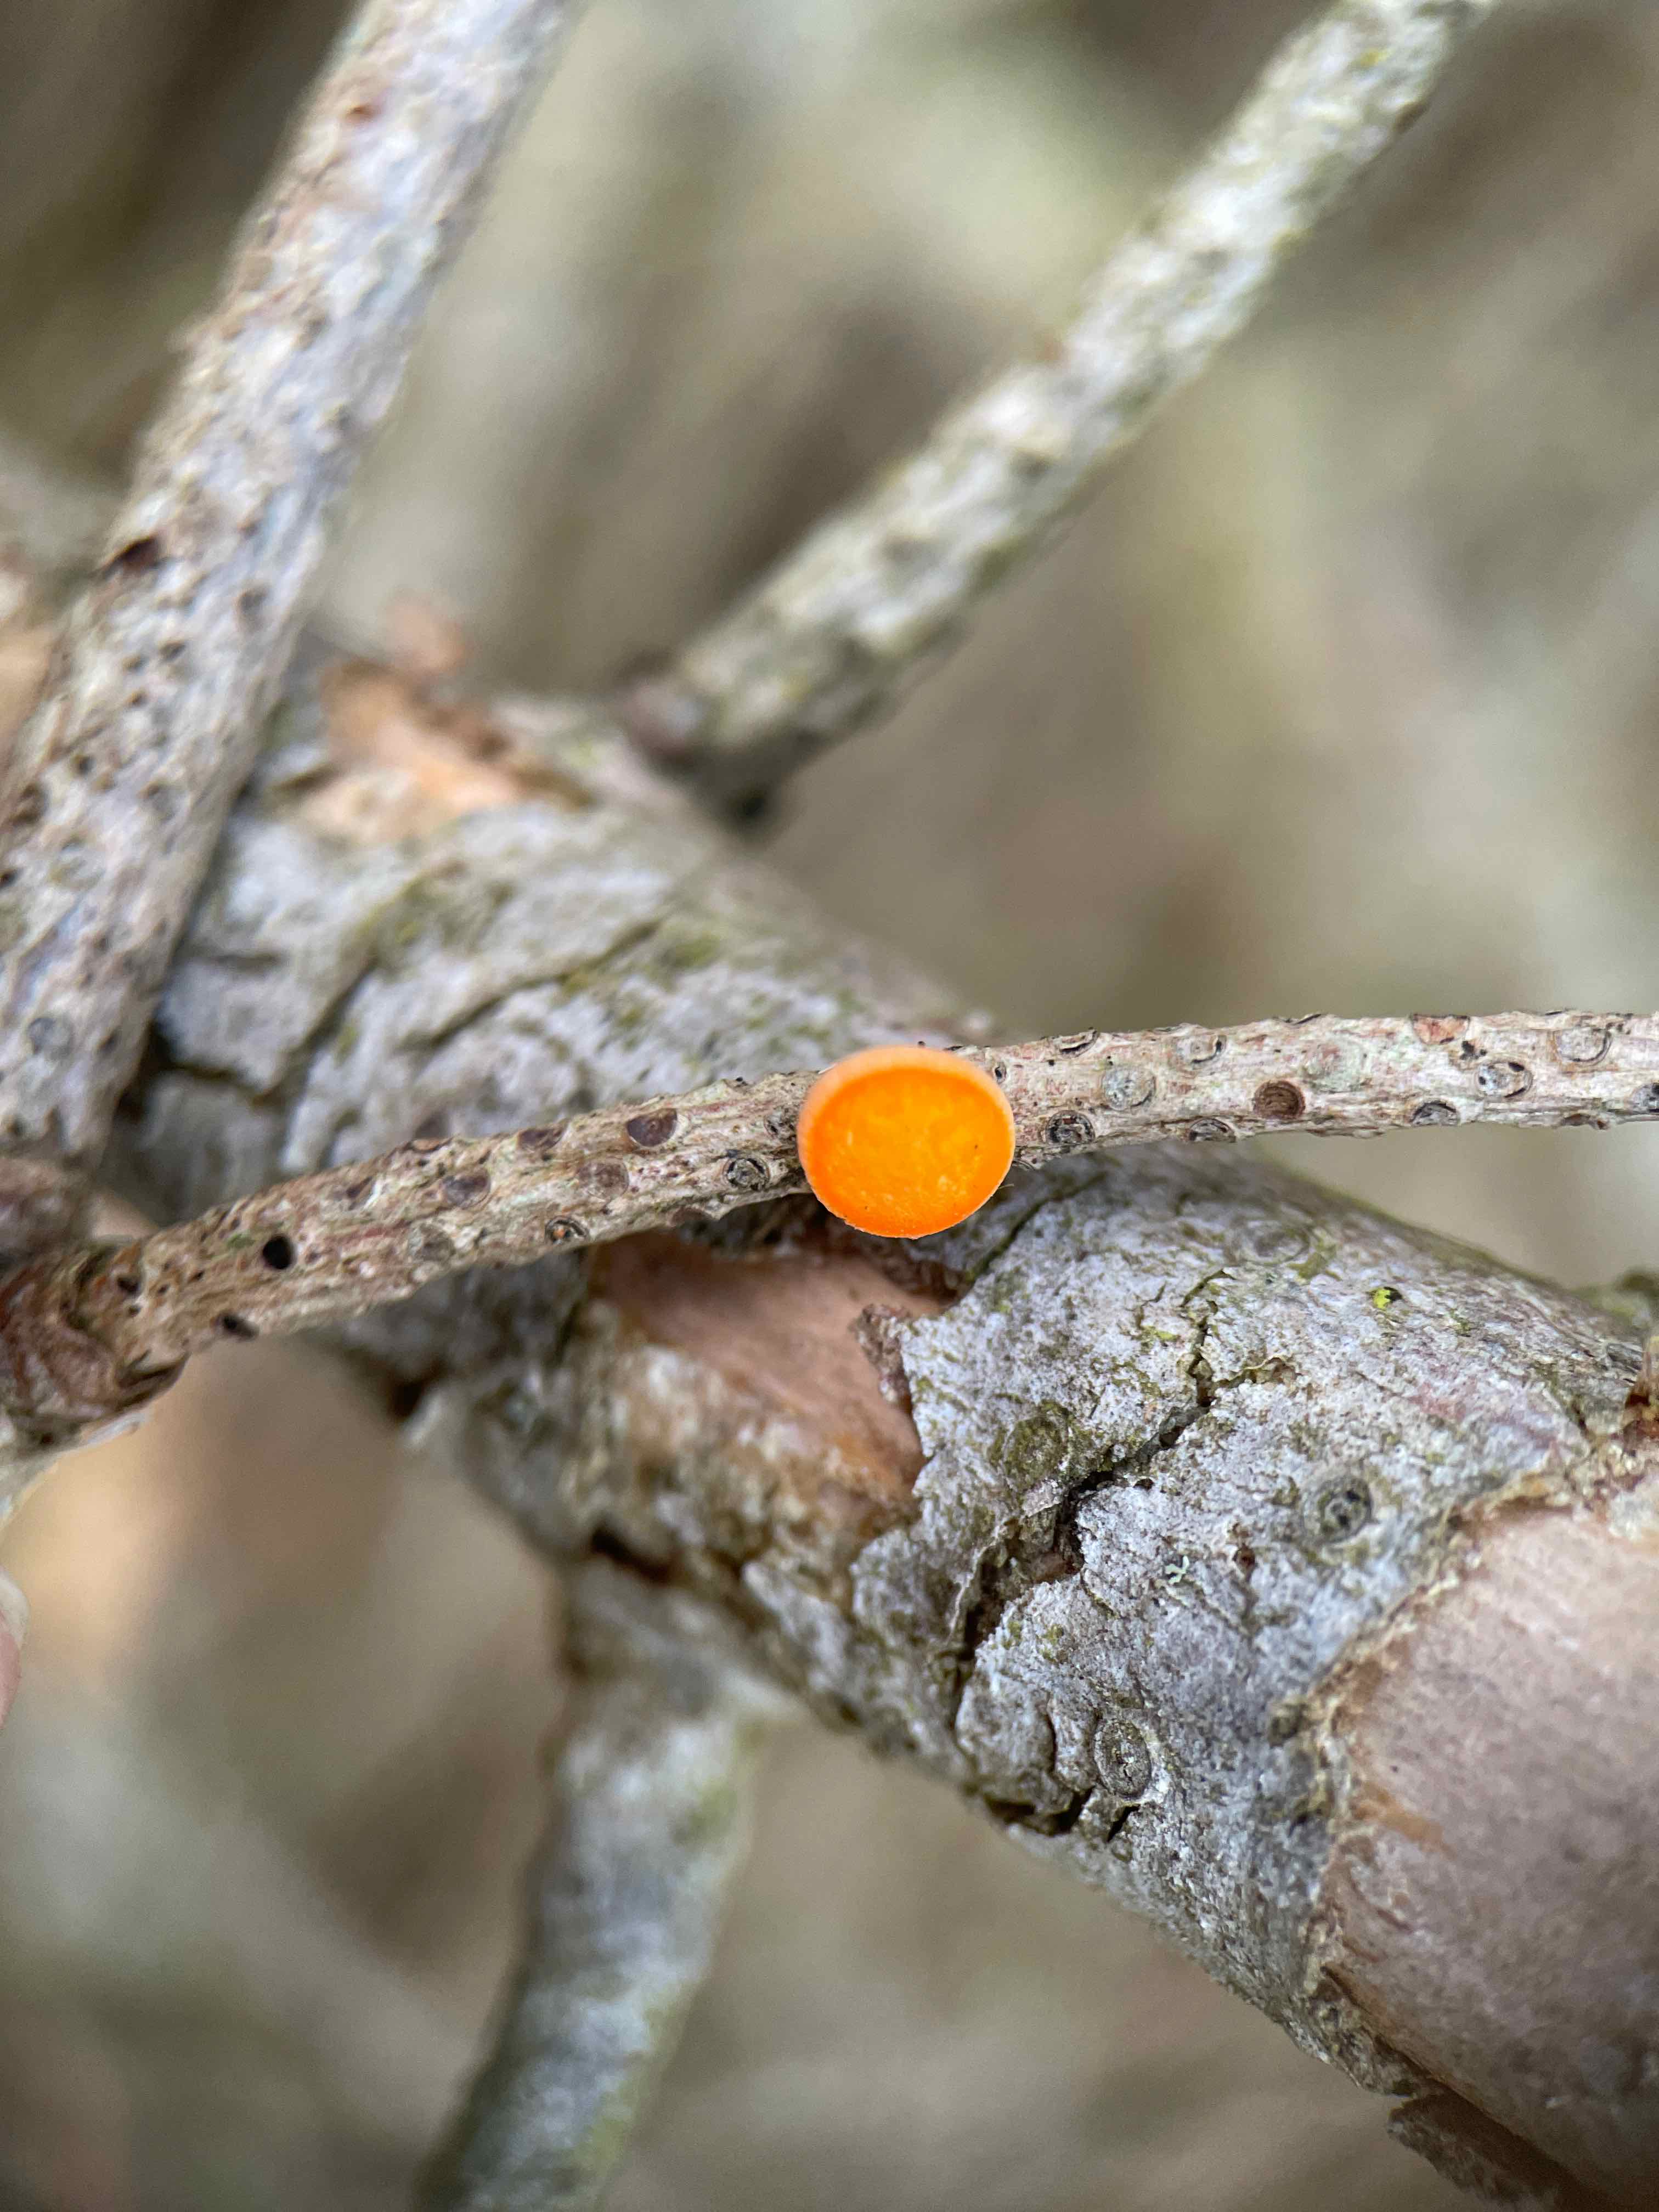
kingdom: Fungi
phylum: Ascomycota
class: Pezizomycetes
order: Pezizales
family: Sarcoscyphaceae
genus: Pithya
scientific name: Pithya vulgaris
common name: stor dukatbæger
